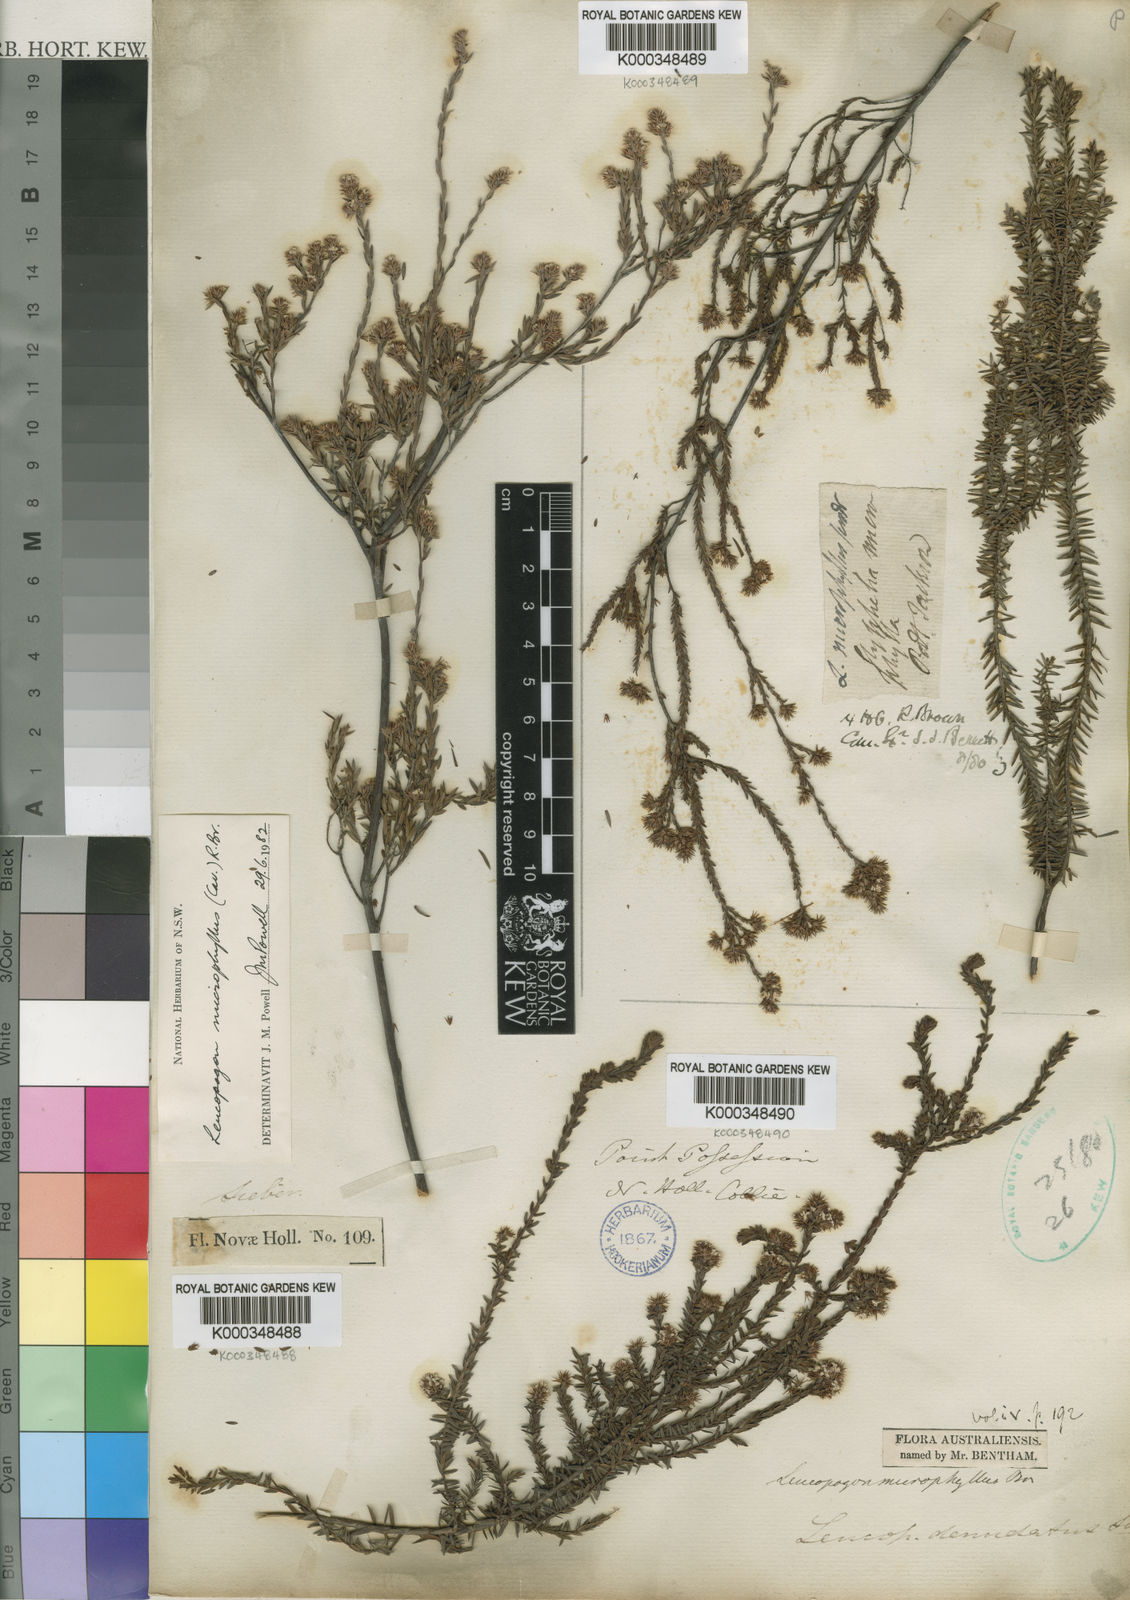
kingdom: Plantae
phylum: Tracheophyta
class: Magnoliopsida
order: Ericales
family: Ericaceae
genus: Leucopogon
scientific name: Leucopogon microphyllus
